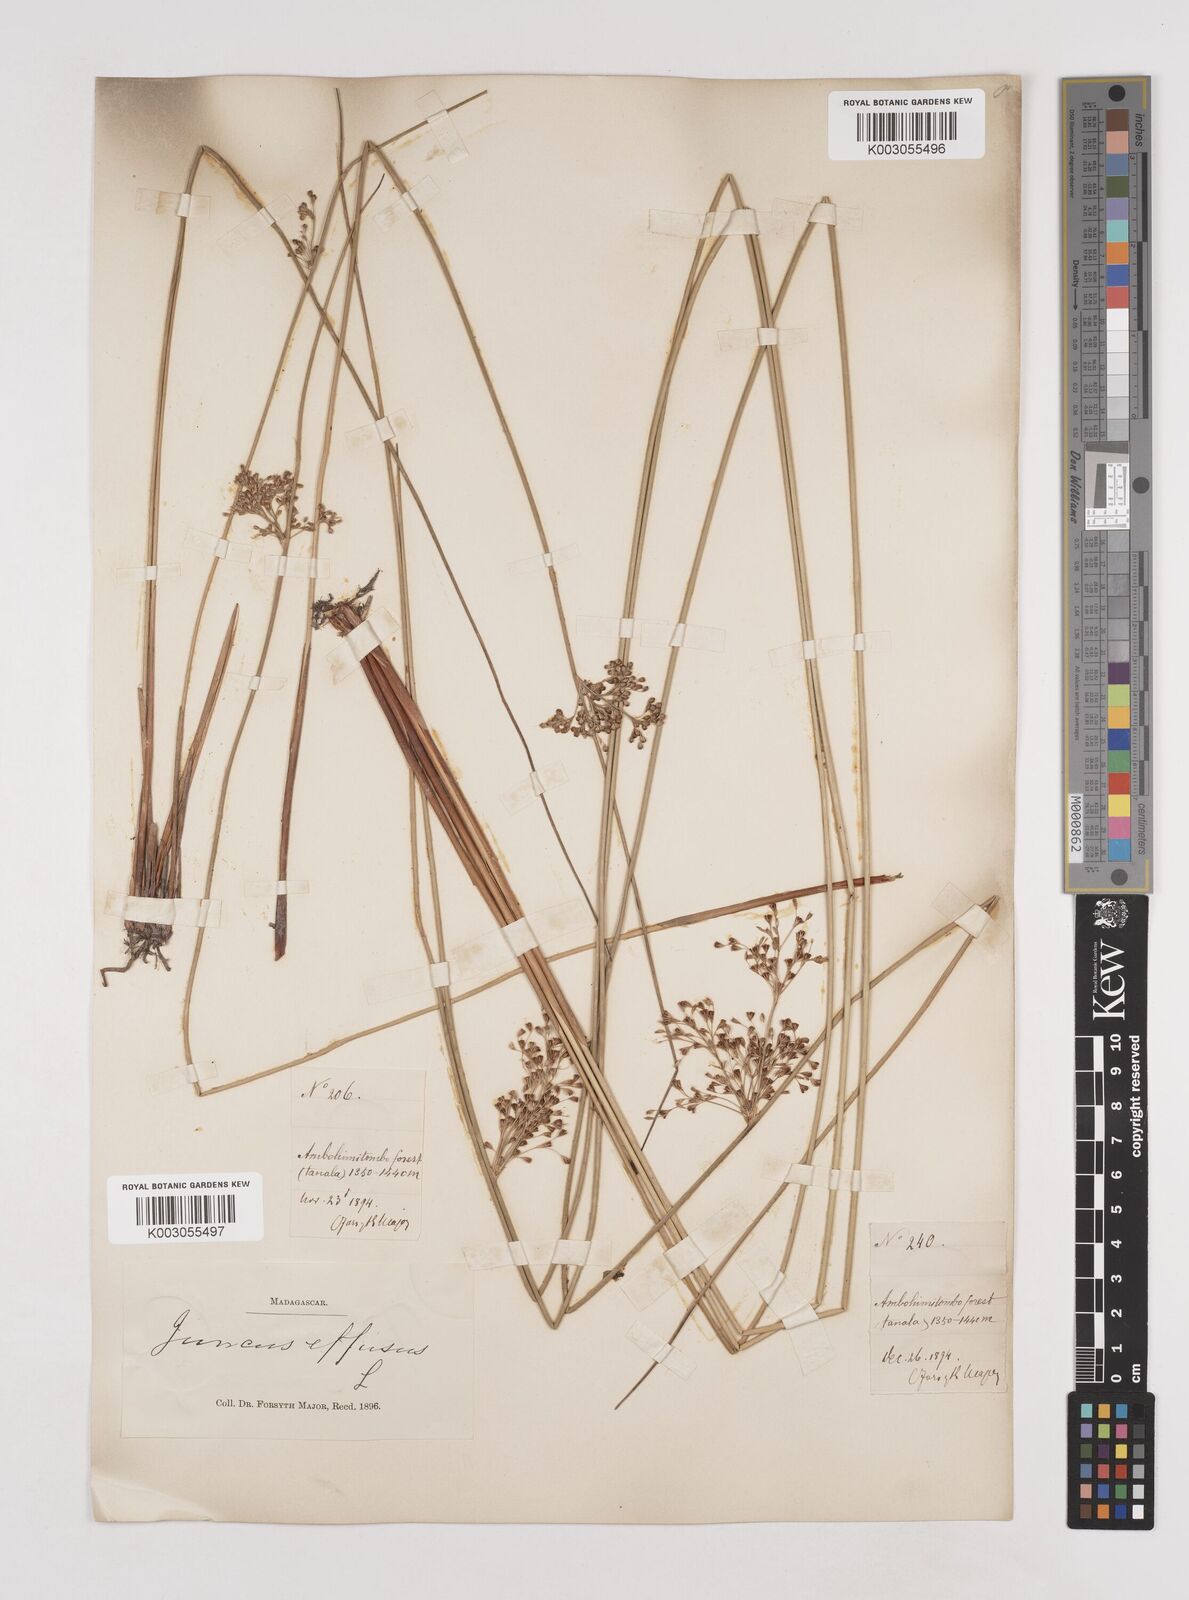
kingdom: Plantae
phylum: Tracheophyta
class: Liliopsida
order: Poales
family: Juncaceae
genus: Juncus
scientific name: Juncus effusus
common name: Soft rush
